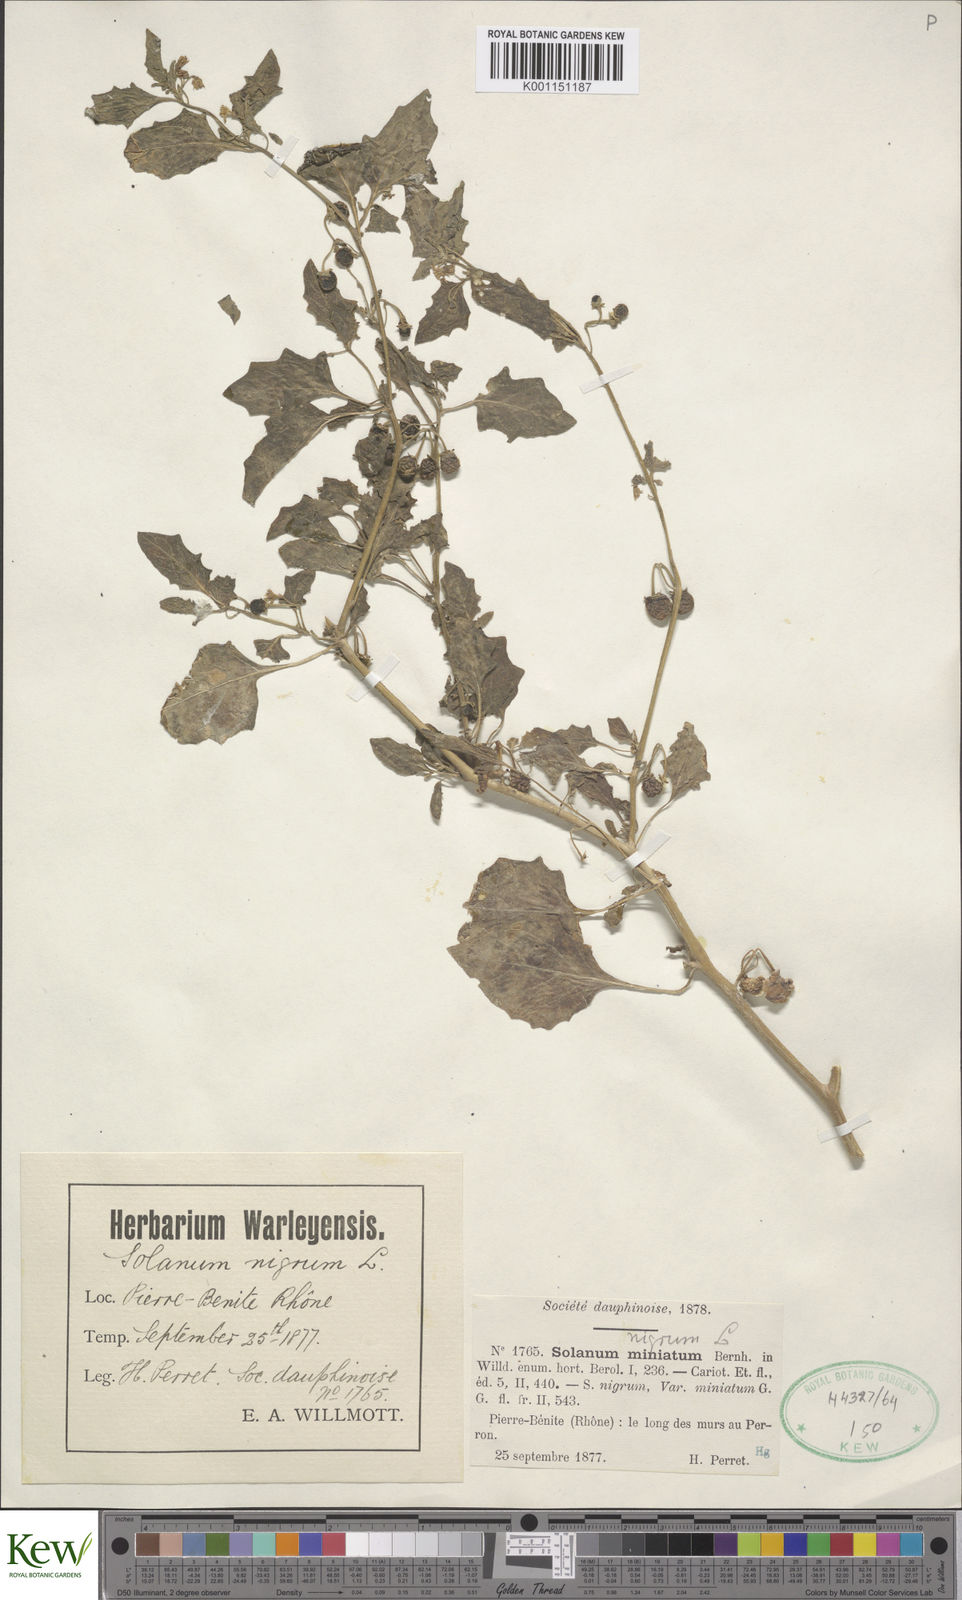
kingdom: Plantae
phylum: Tracheophyta
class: Magnoliopsida
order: Solanales
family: Solanaceae
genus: Solanum
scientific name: Solanum alatum
